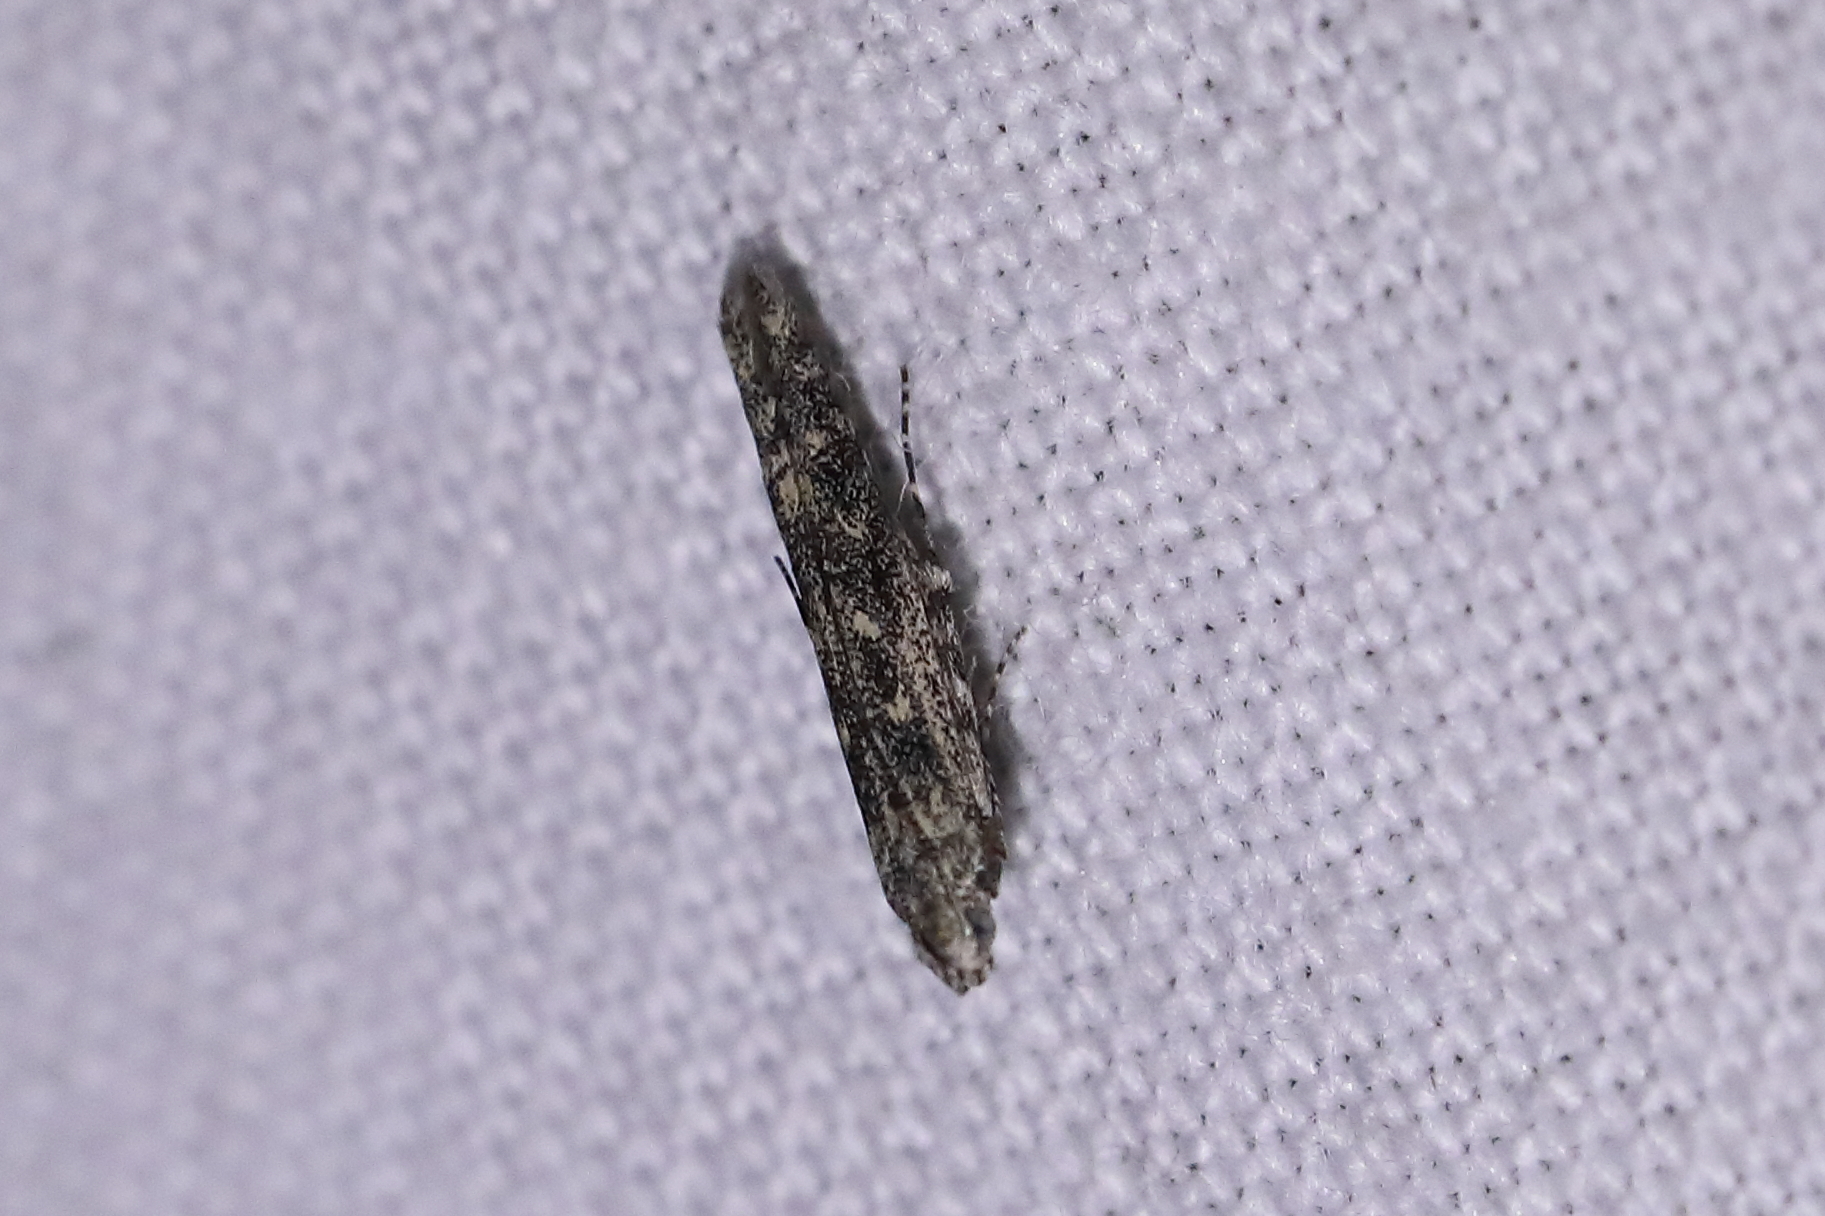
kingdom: Animalia
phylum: Arthropoda
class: Insecta
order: Lepidoptera
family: Batrachedridae
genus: Batrachedra
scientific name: Batrachedra praeangusta
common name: Poplar cosmet
